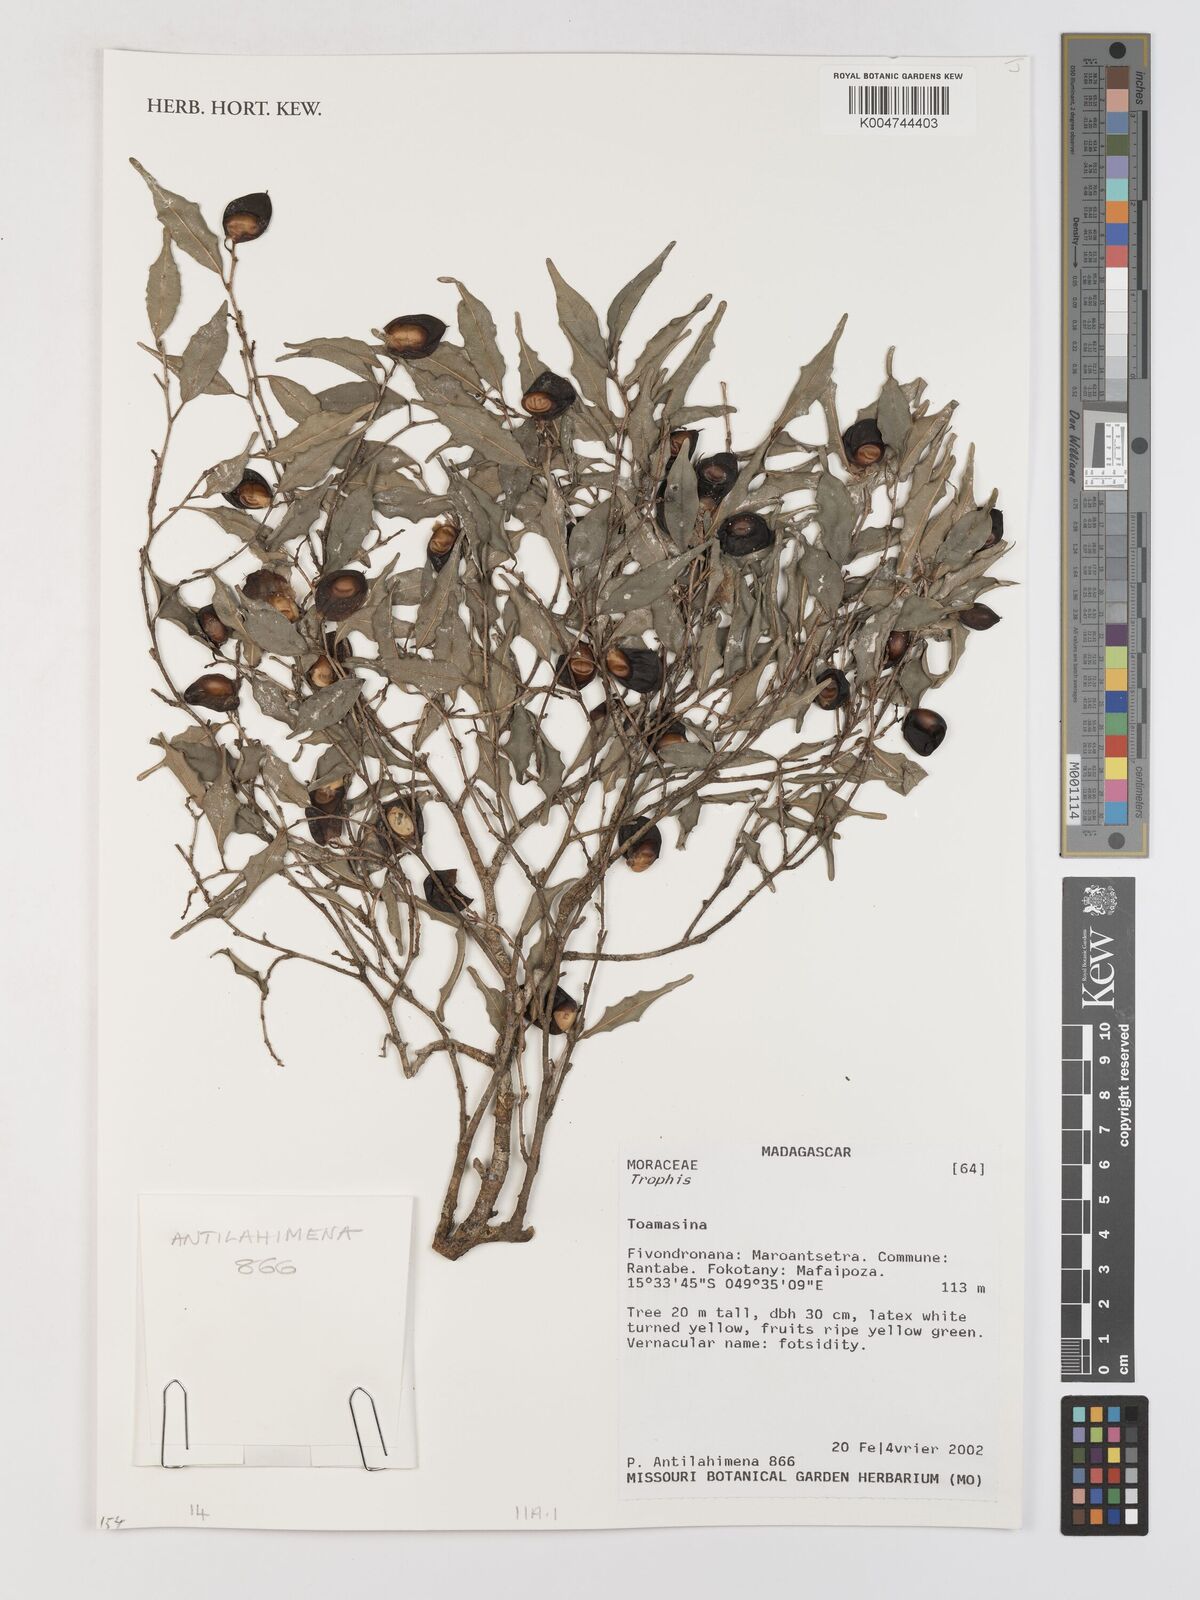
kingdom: Plantae
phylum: Tracheophyta
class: Magnoliopsida
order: Rosales
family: Moraceae
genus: Trophis
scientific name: Trophis
